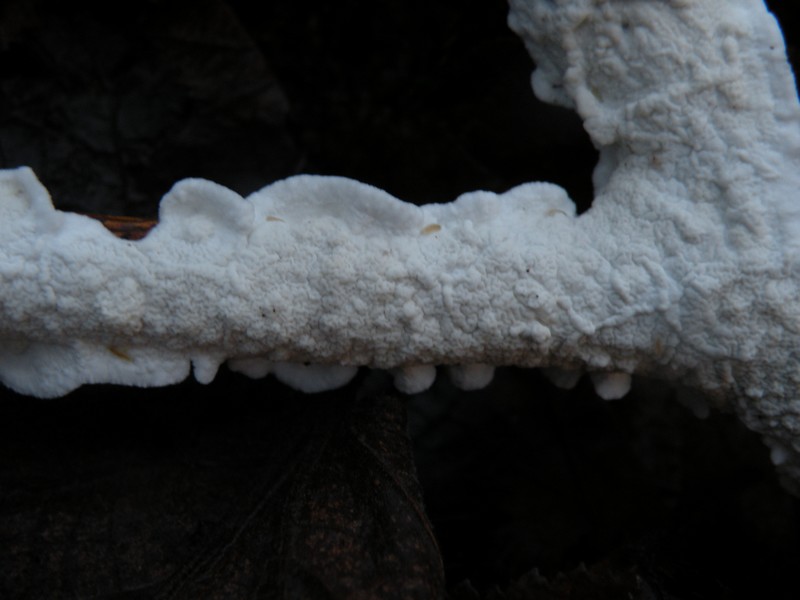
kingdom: Fungi
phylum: Basidiomycota
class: Agaricomycetes
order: Polyporales
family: Irpicaceae
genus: Byssomerulius
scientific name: Byssomerulius corium
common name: læder-åresvamp
